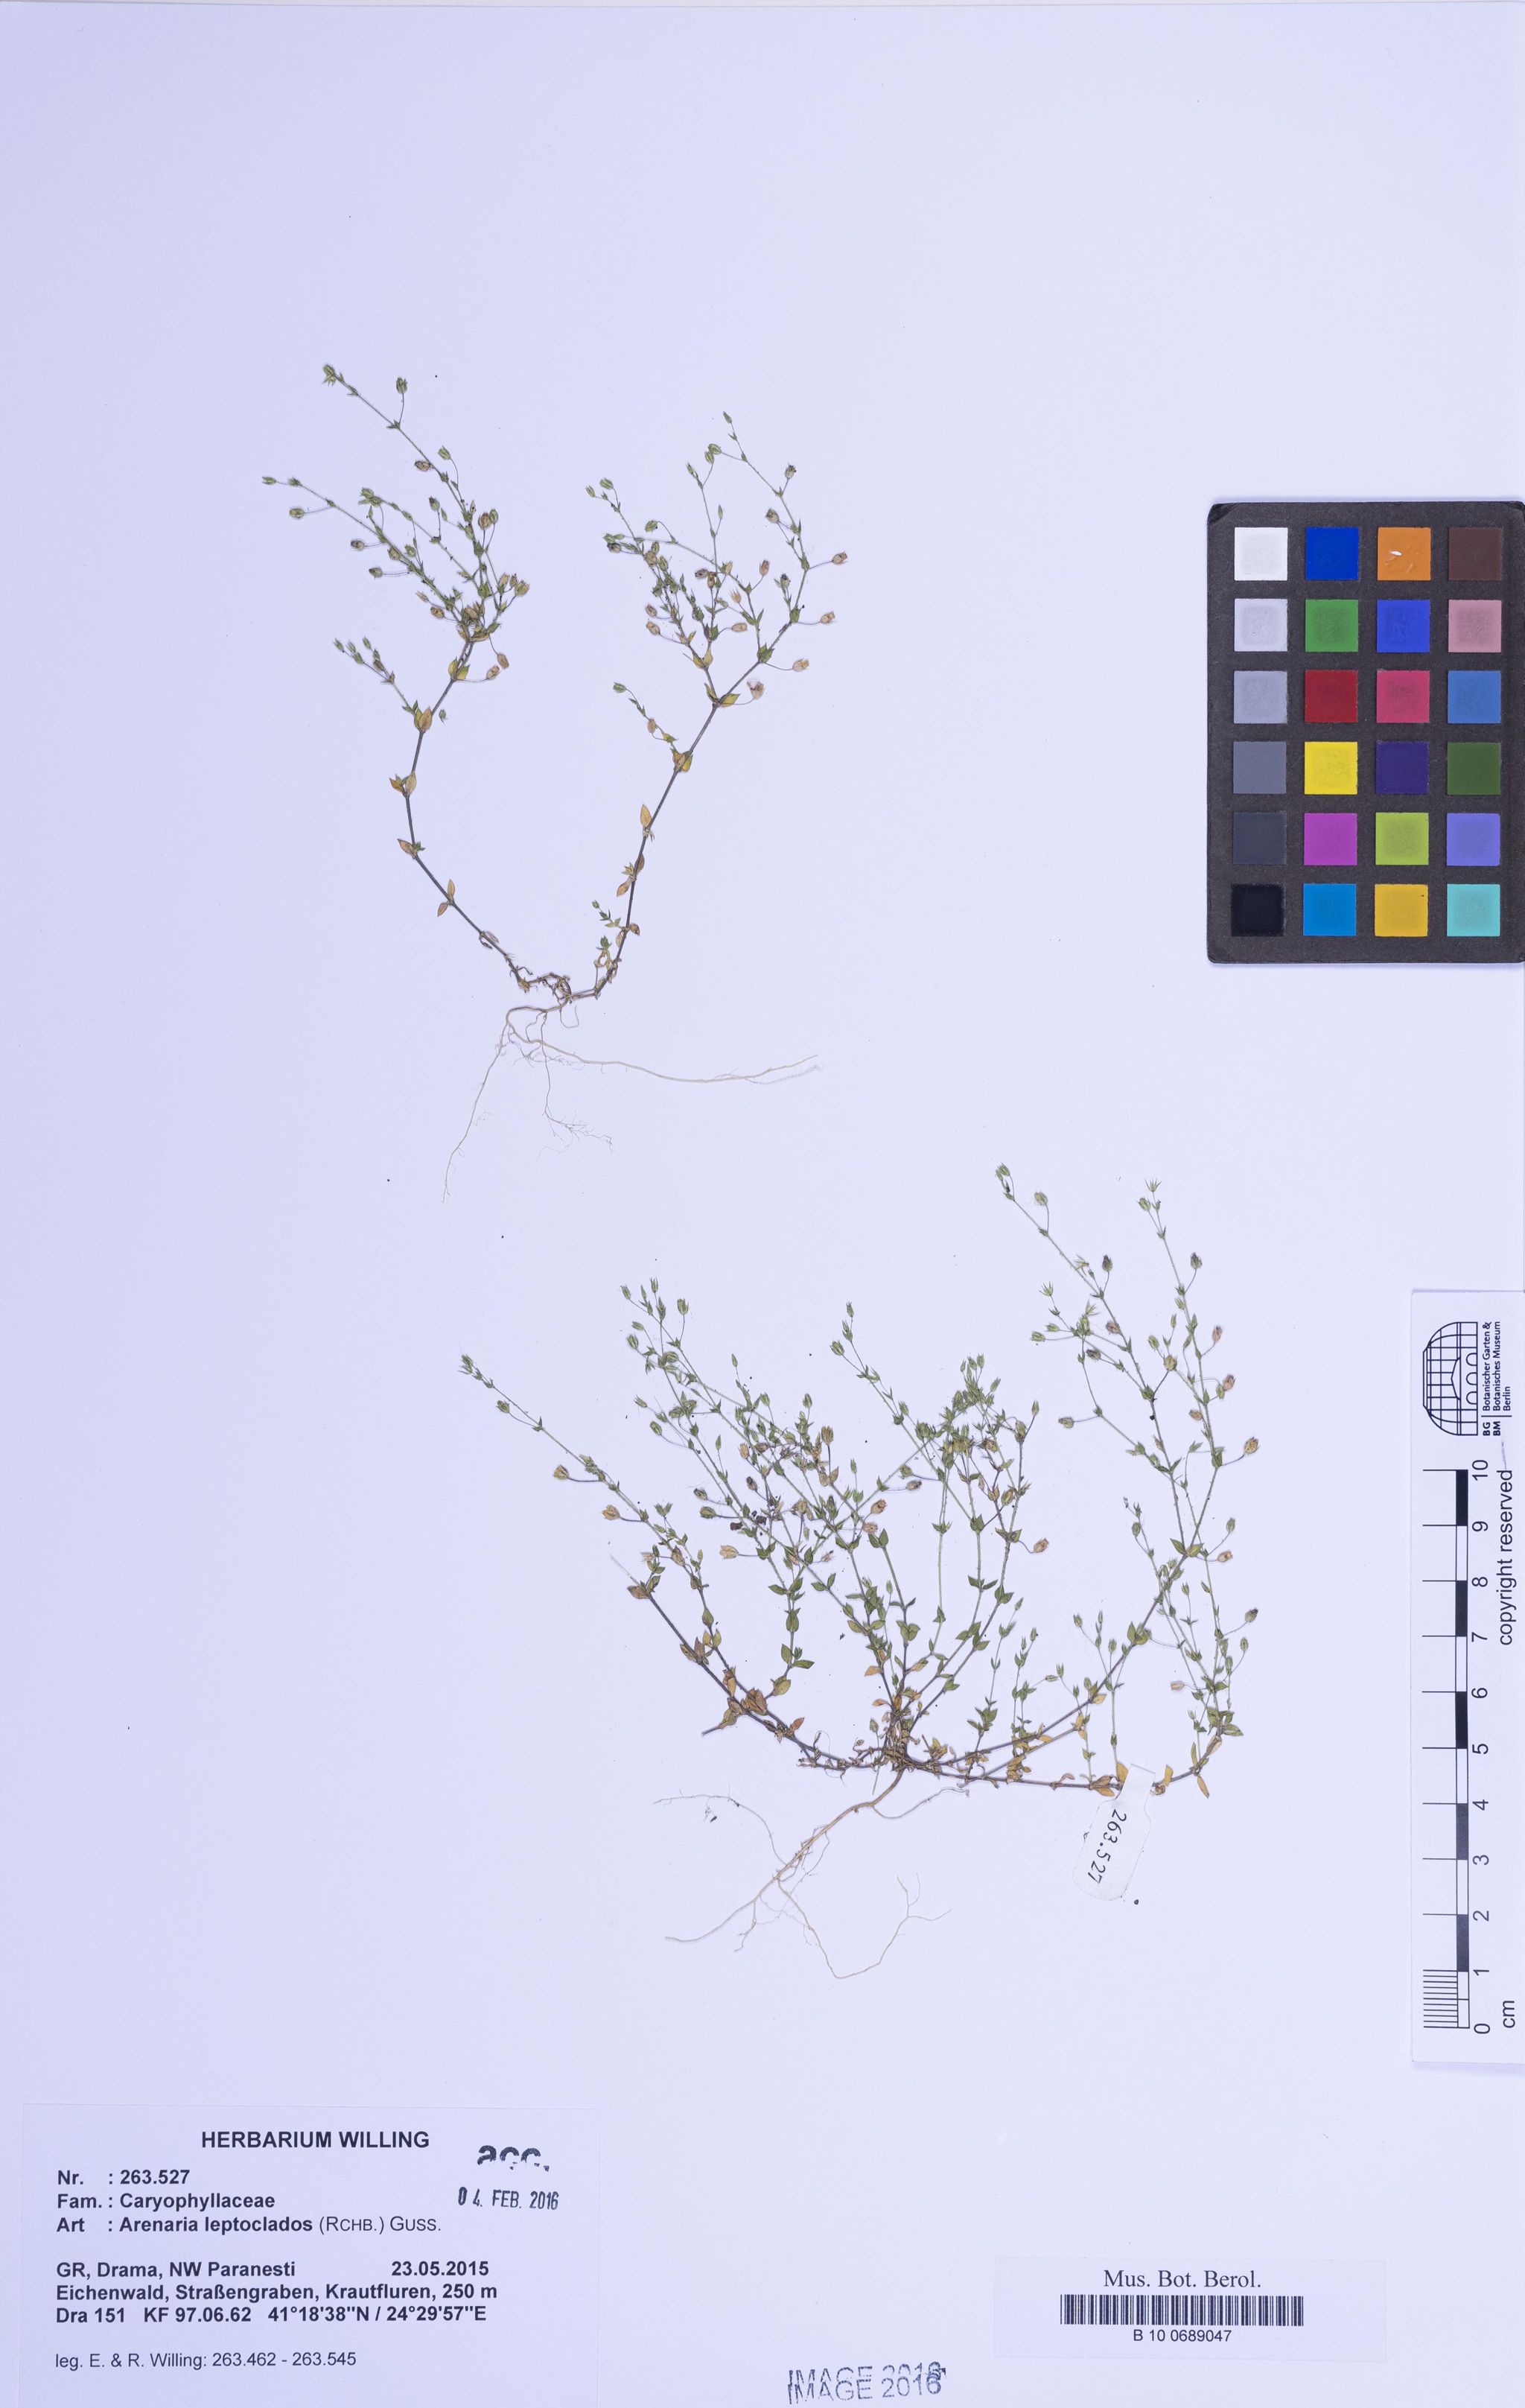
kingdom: Plantae
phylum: Tracheophyta
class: Magnoliopsida
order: Caryophyllales
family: Caryophyllaceae
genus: Arenaria
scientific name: Arenaria leptoclados
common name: Thyme-leaved sandwort
